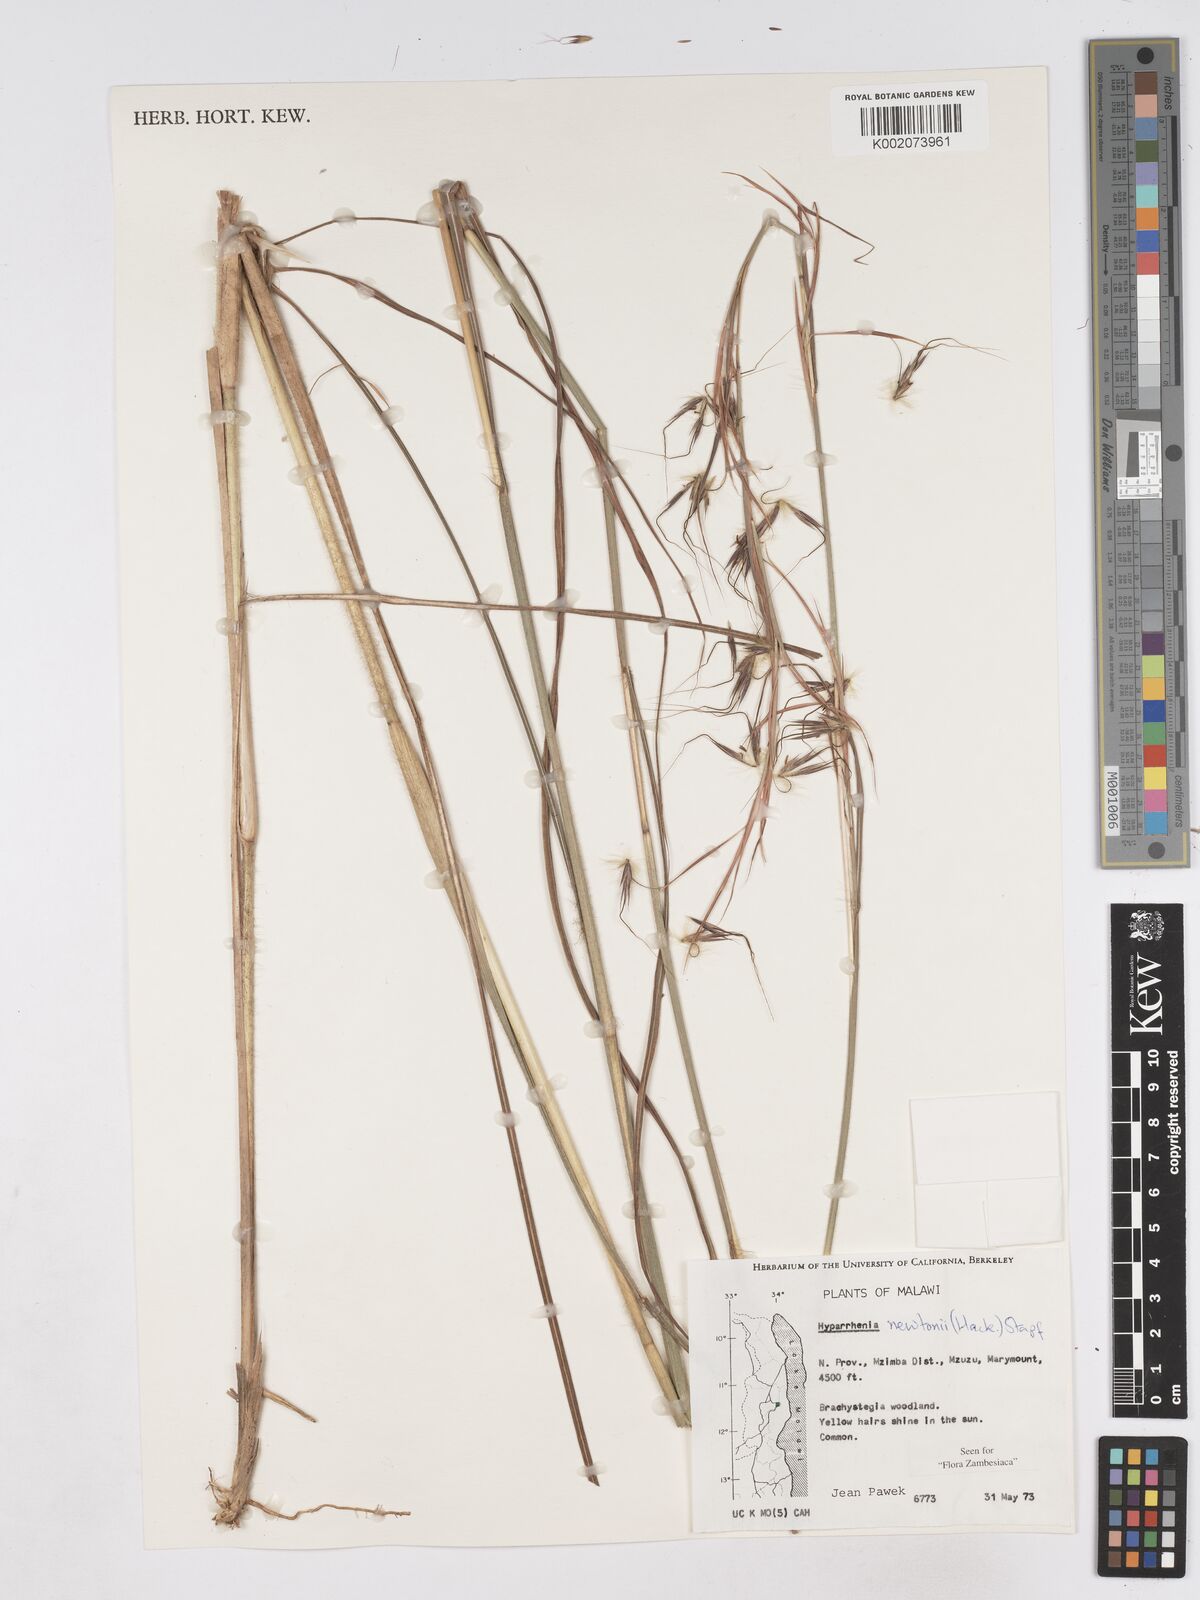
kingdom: Plantae
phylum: Tracheophyta
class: Liliopsida
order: Poales
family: Poaceae
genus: Hyparrhenia
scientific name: Hyparrhenia newtonii
